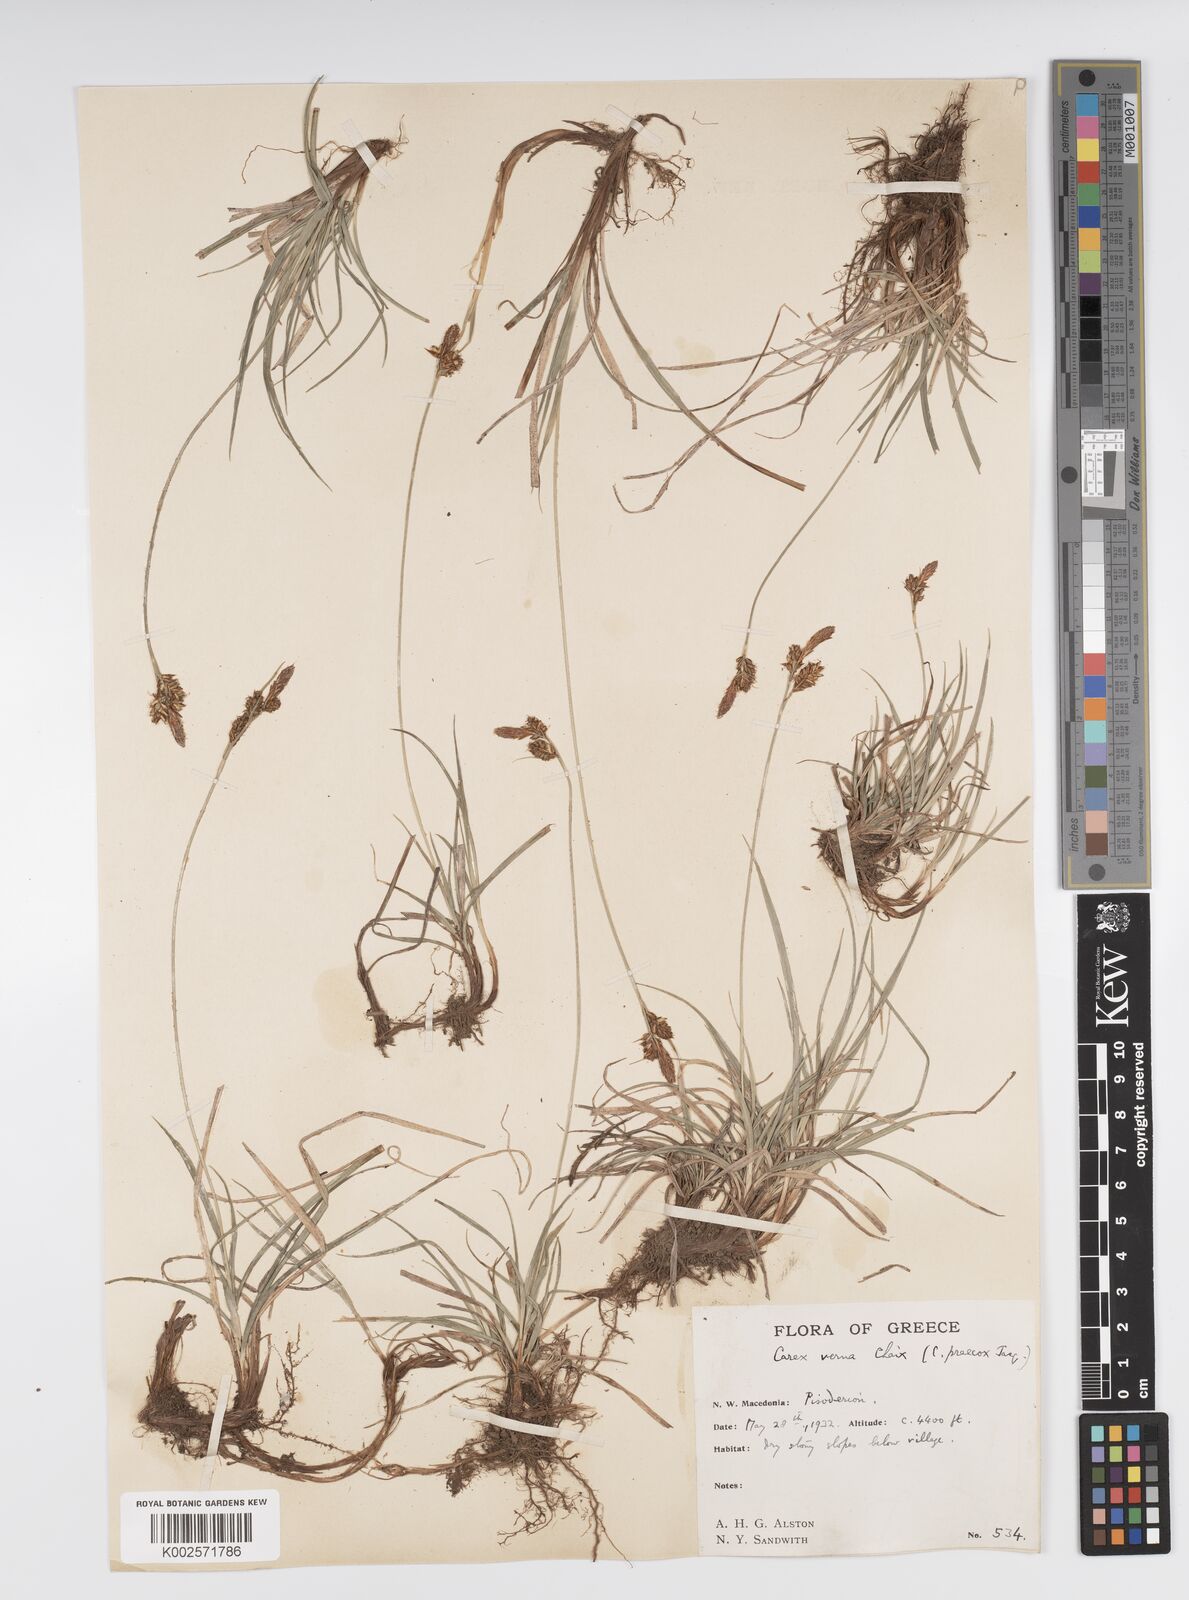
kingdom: Plantae
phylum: Tracheophyta
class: Liliopsida
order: Poales
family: Cyperaceae
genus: Carex
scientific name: Carex caryophyllea
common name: Spring sedge
